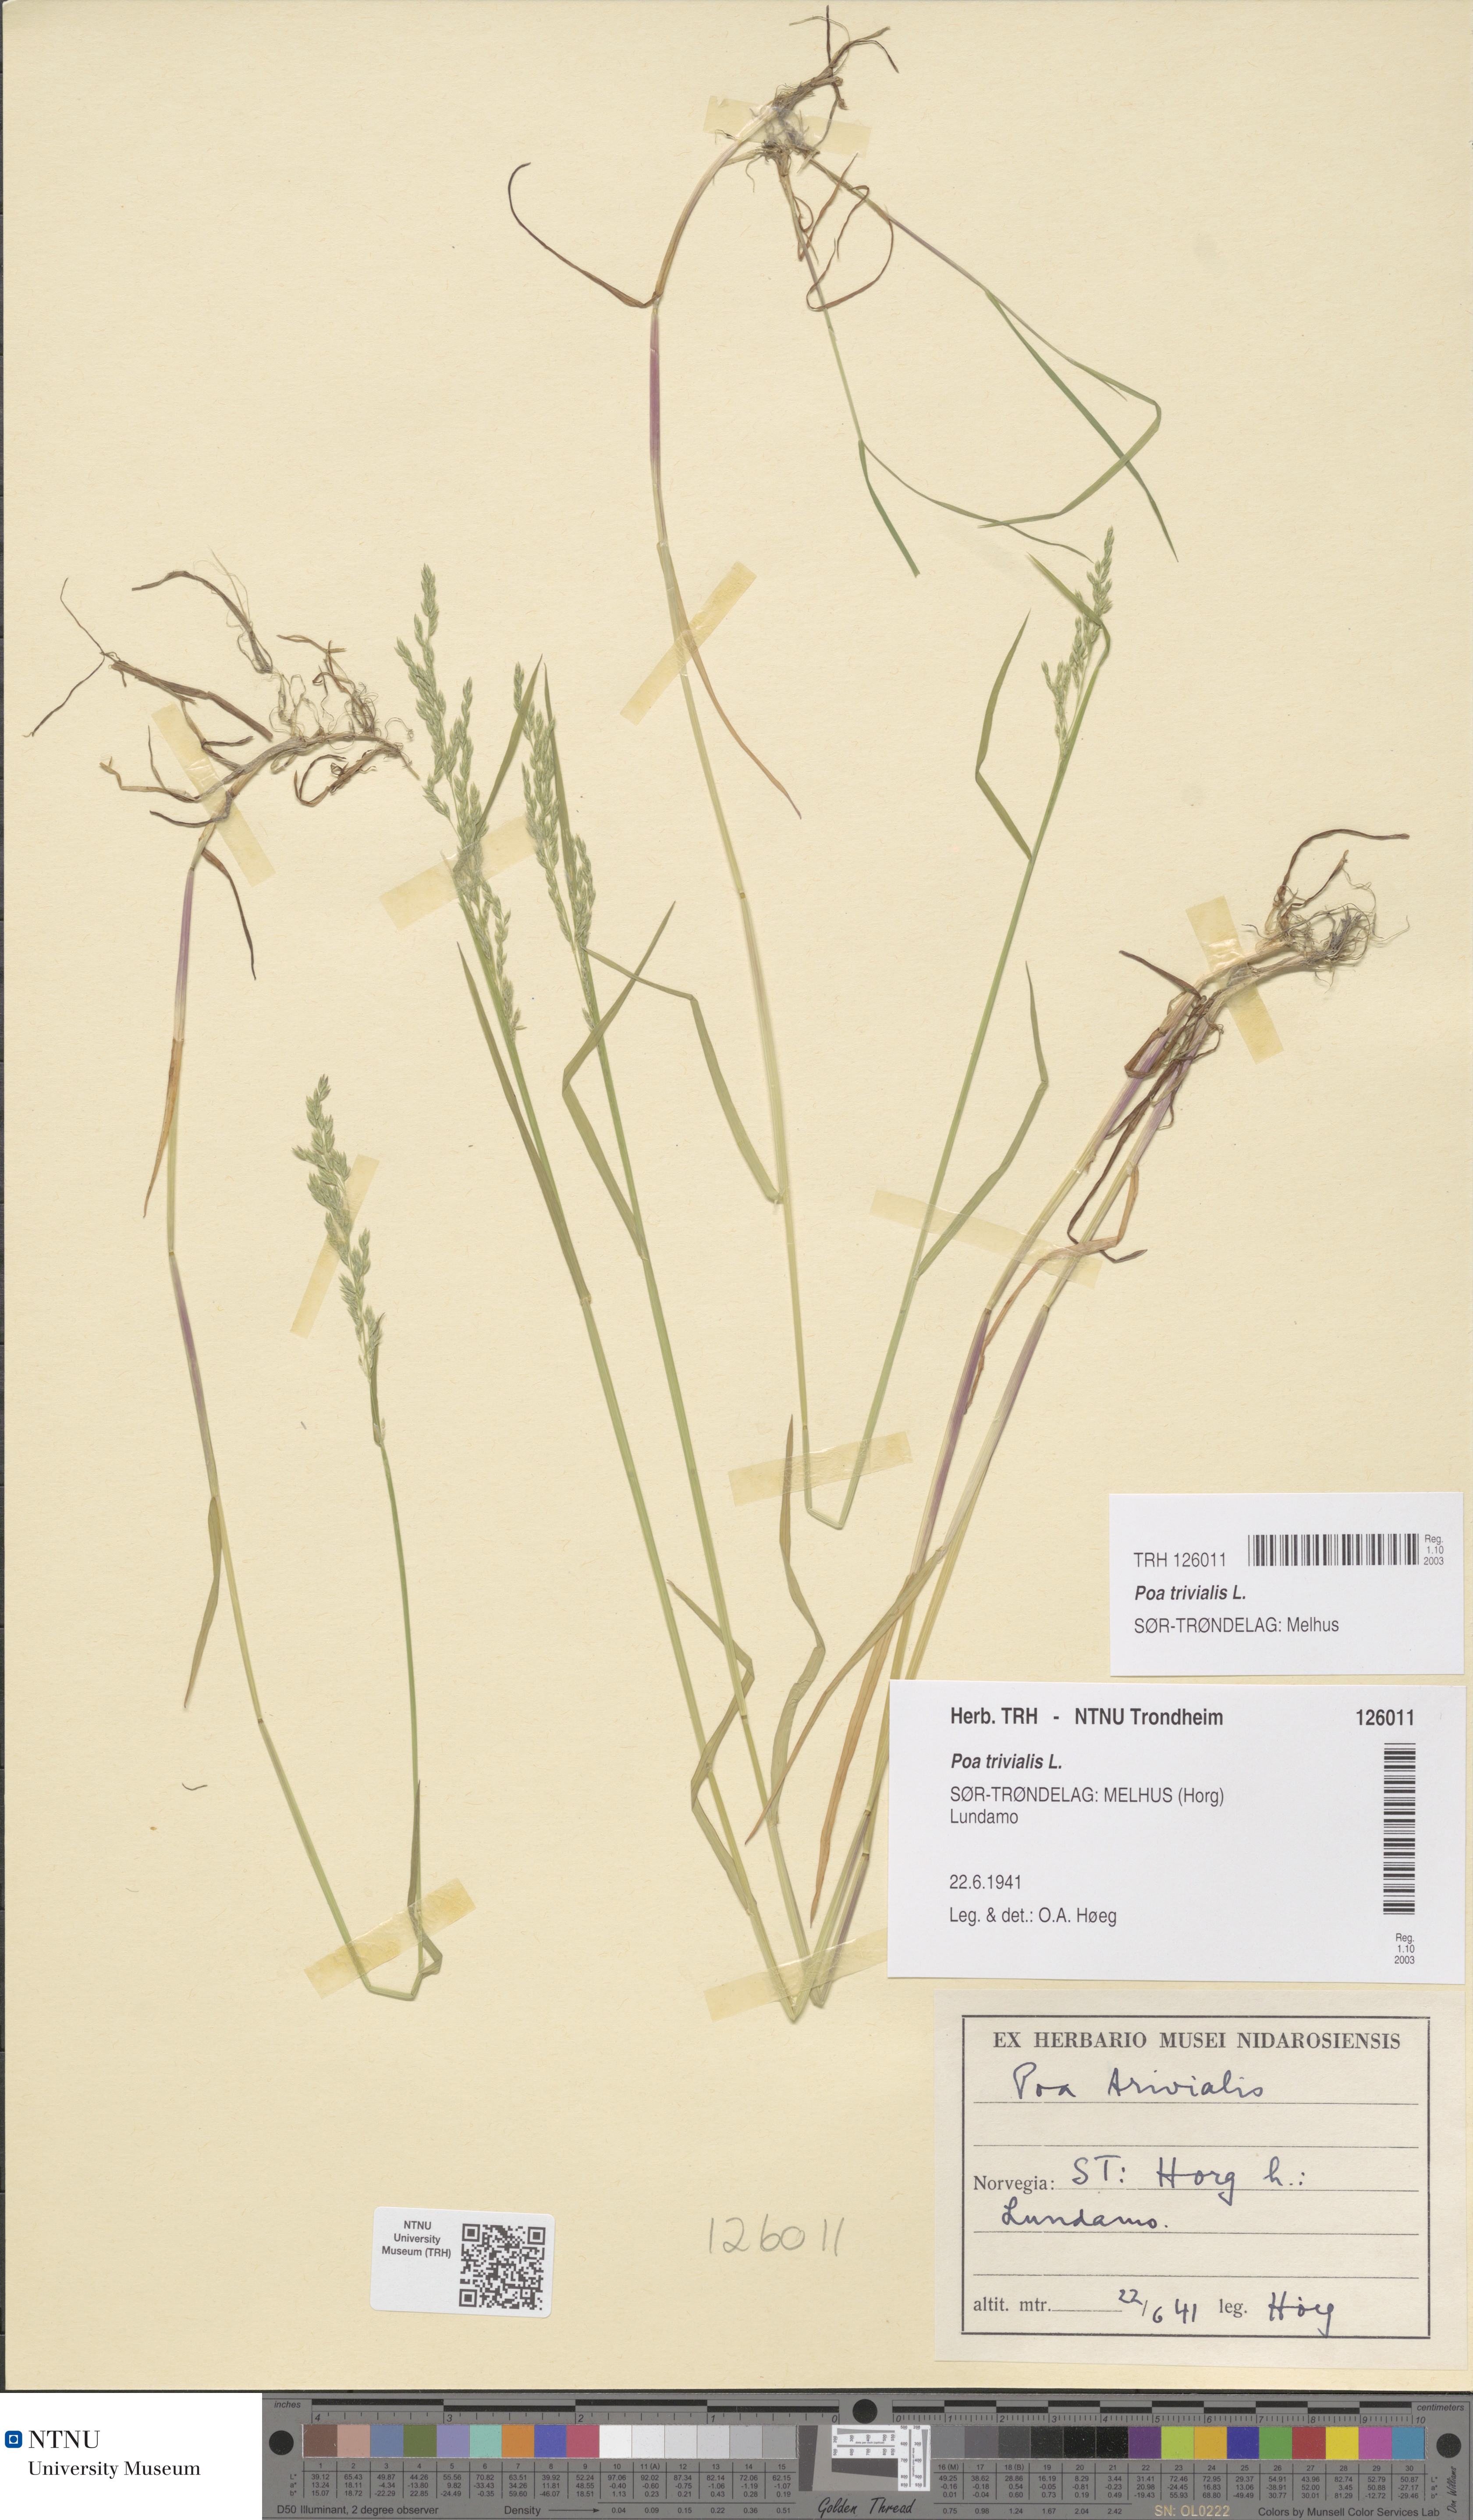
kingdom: Plantae
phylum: Tracheophyta
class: Liliopsida
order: Poales
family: Poaceae
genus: Poa
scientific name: Poa trivialis
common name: Rough bluegrass
